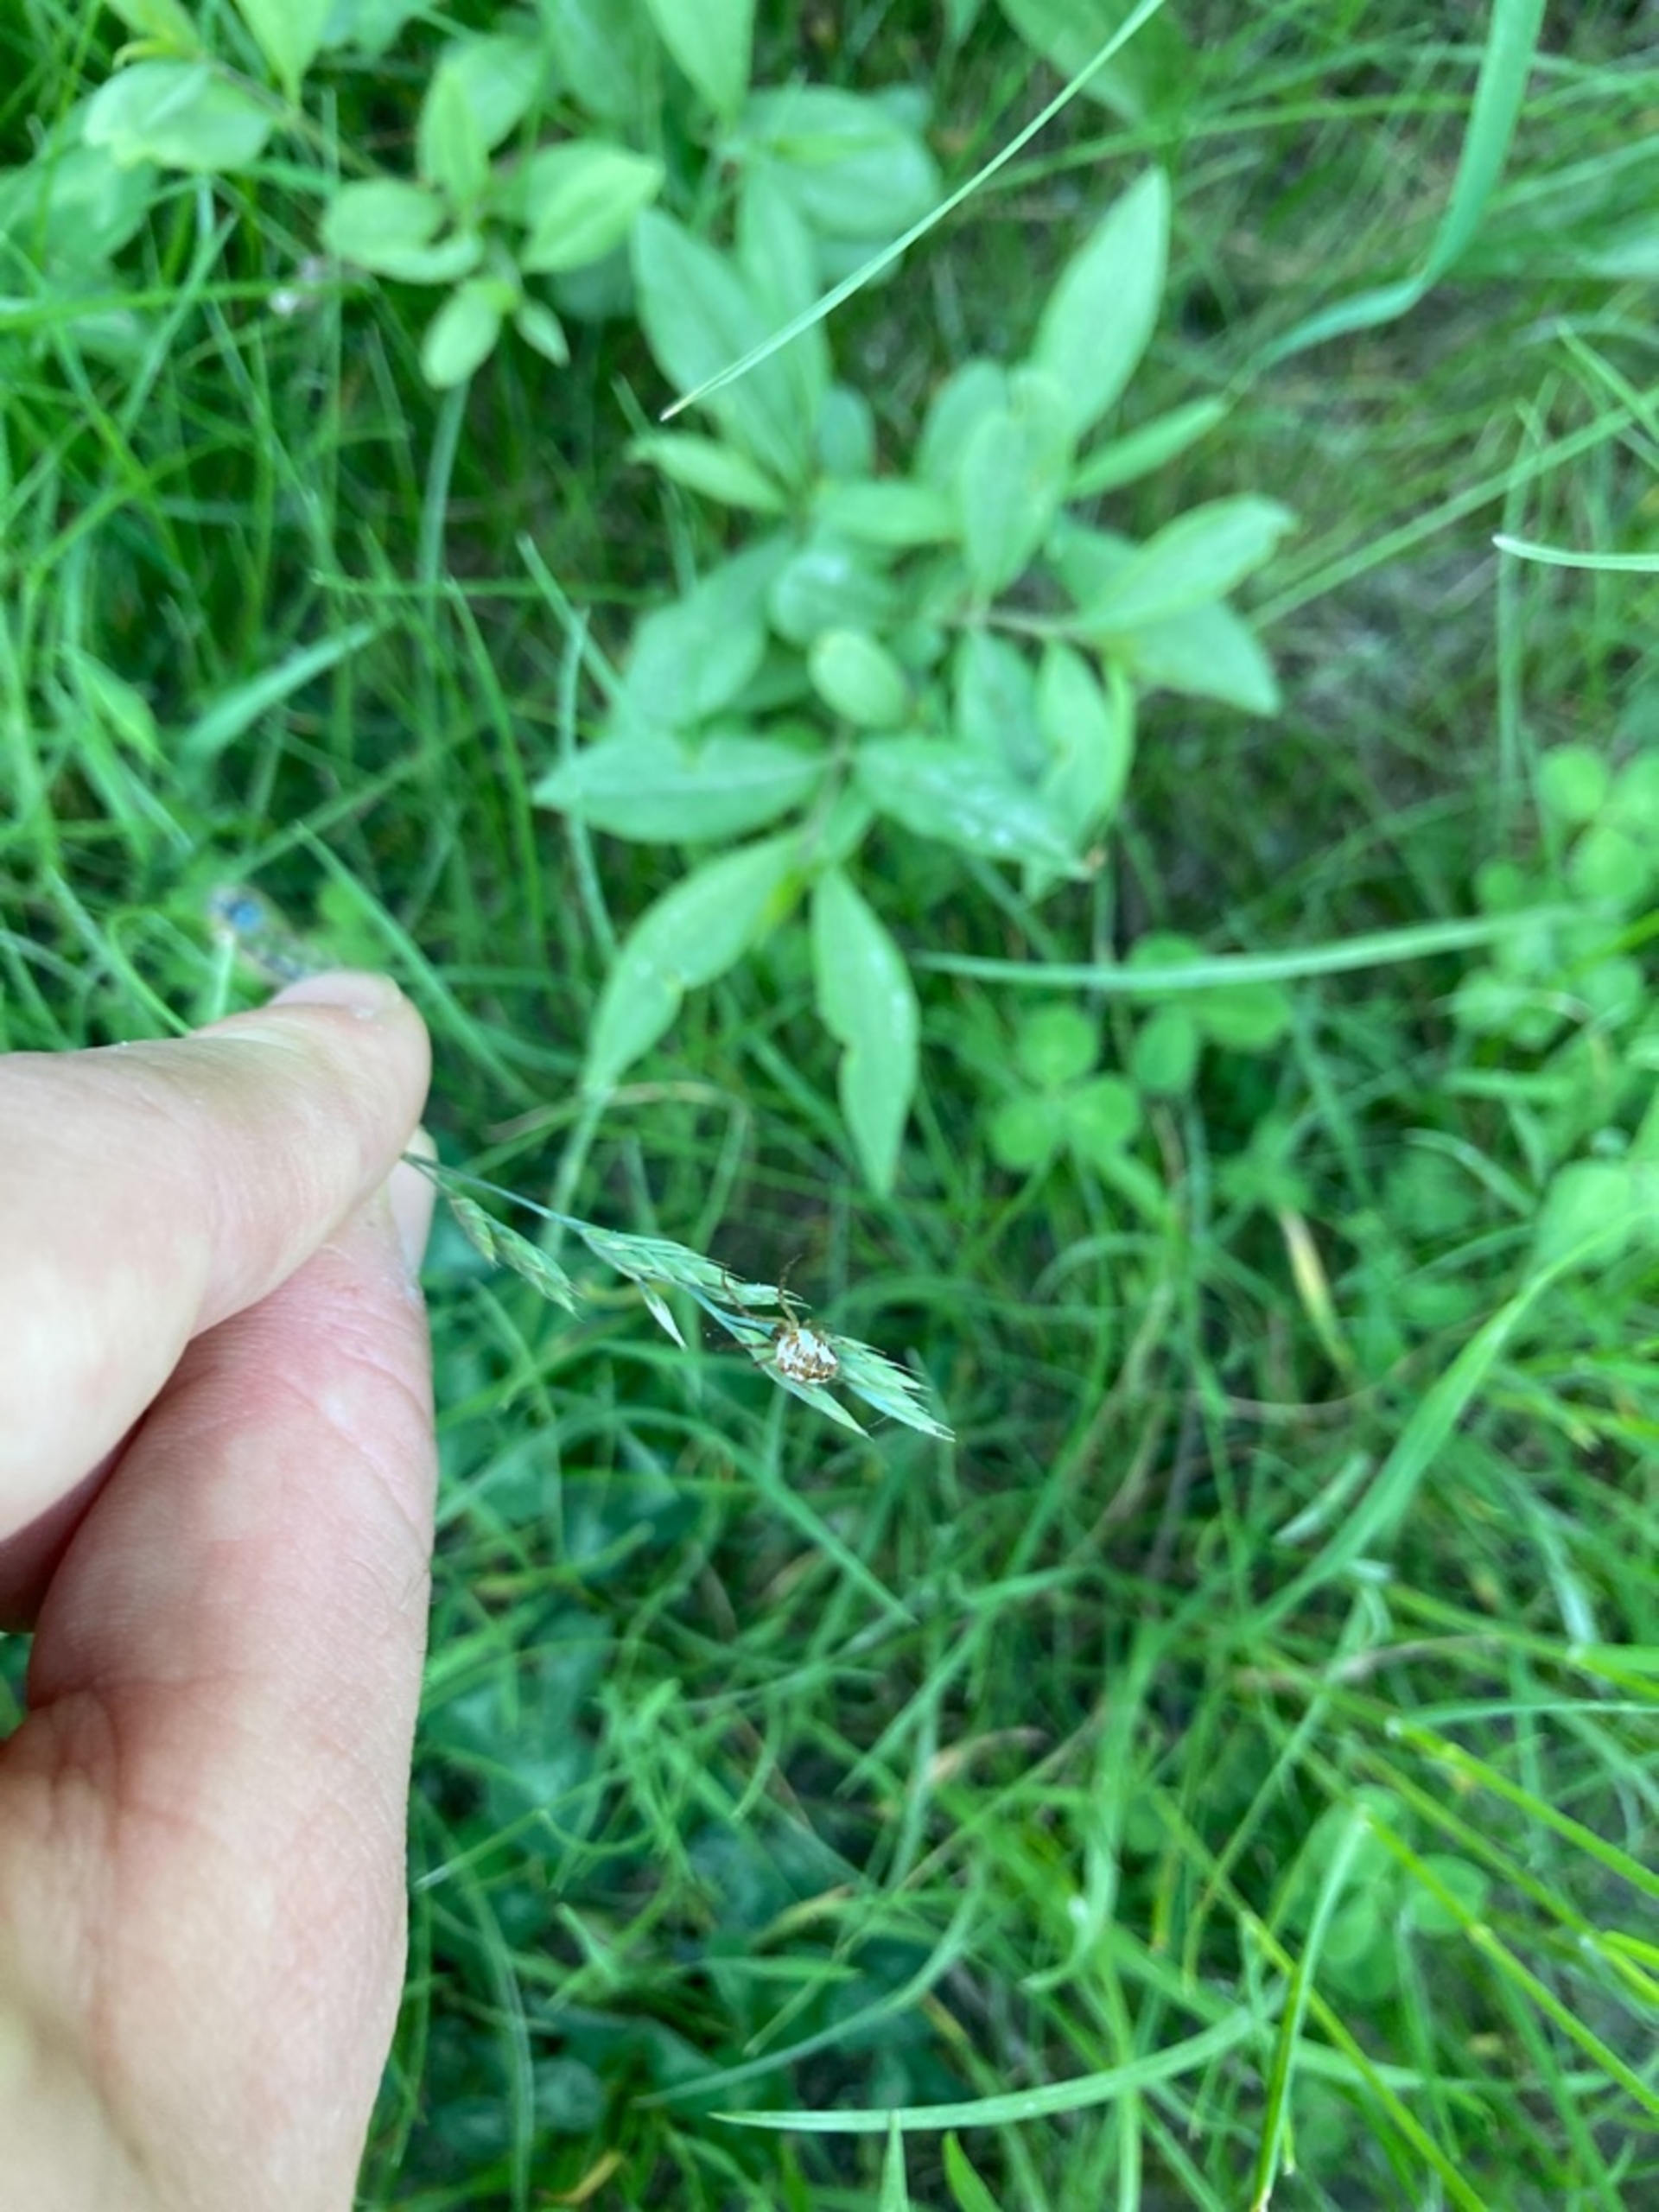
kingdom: Animalia
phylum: Arthropoda
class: Arachnida
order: Araneae
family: Tetragnathidae
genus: Metellina
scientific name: Metellina
